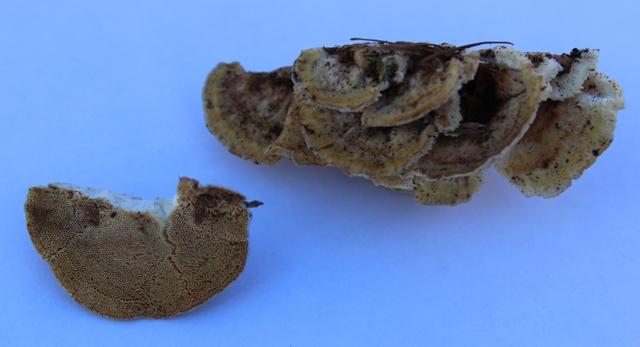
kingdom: Fungi
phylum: Basidiomycota
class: Agaricomycetes
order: Polyporales
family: Polyporaceae
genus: Trametes
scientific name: Trametes ochracea
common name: bæltet læderporesvamp
